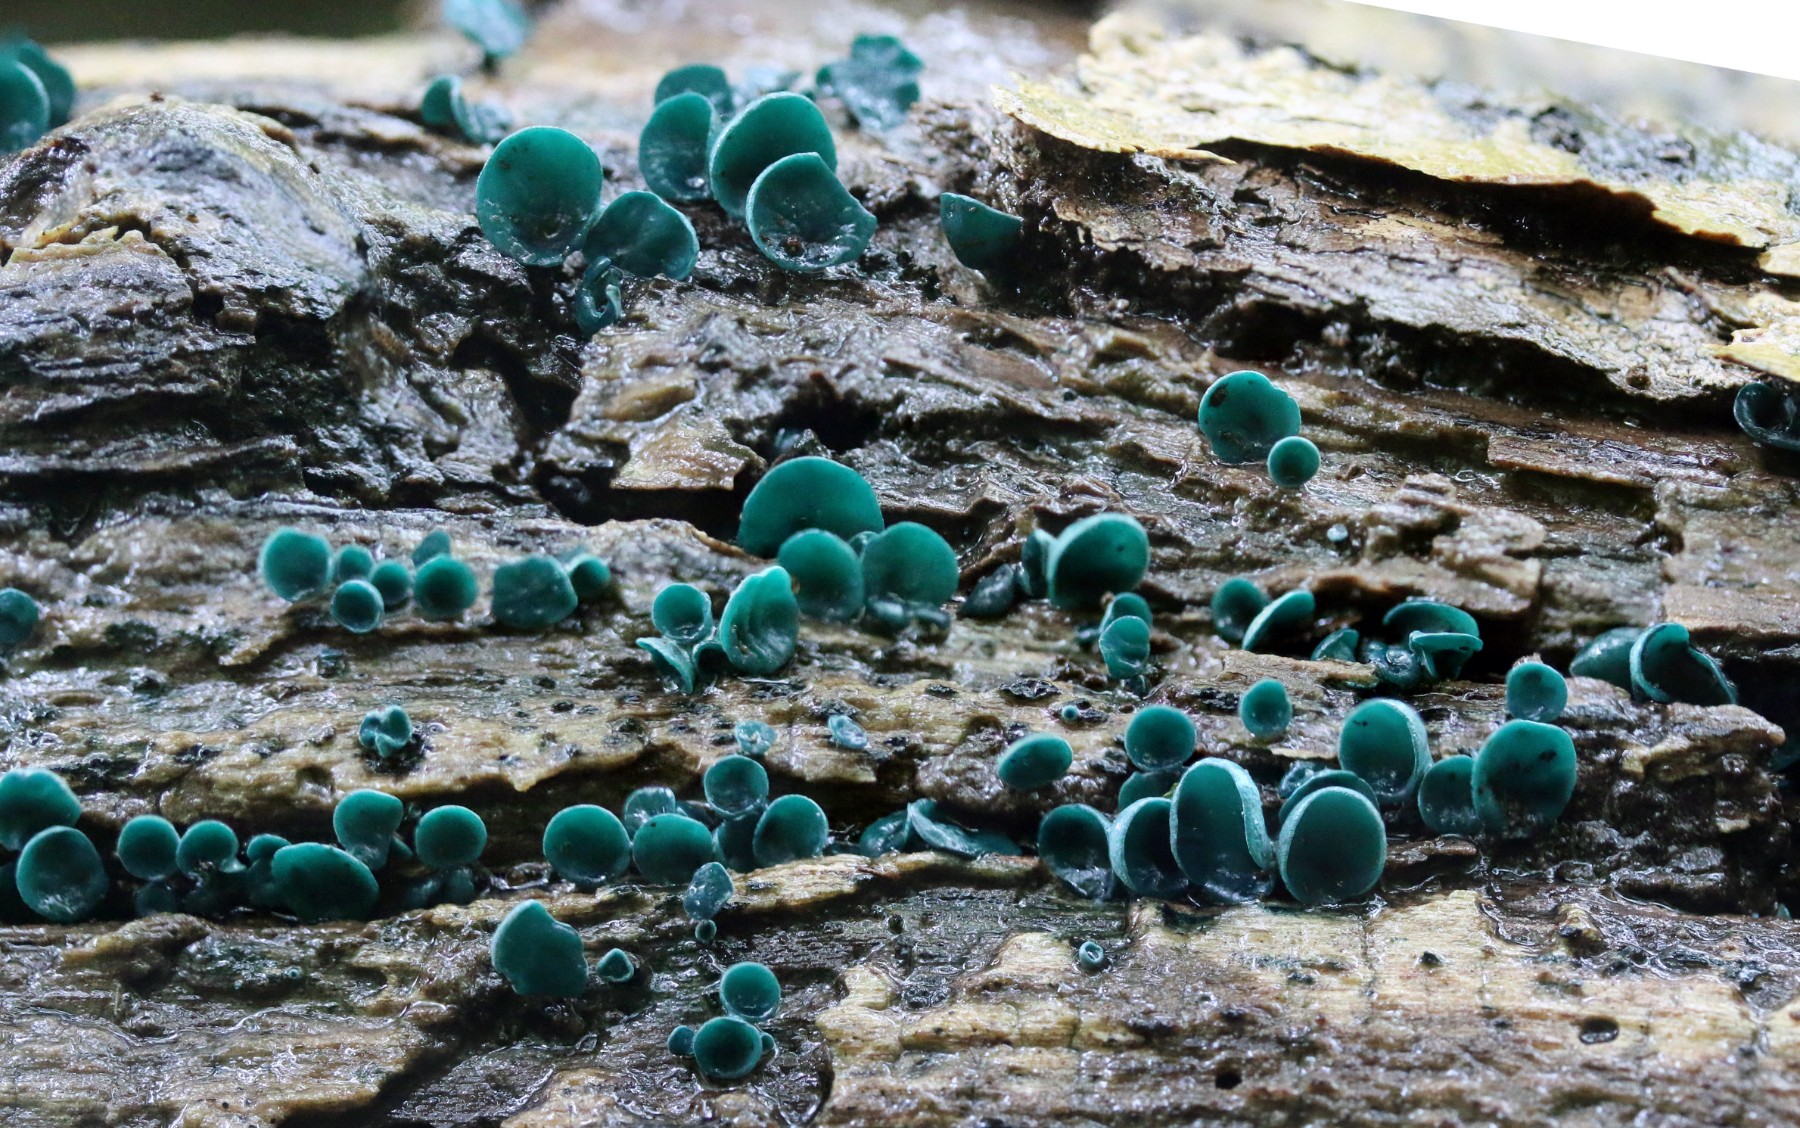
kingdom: Fungi
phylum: Ascomycota
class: Leotiomycetes
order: Helotiales
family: Chlorociboriaceae
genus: Chlorociboria
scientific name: Chlorociboria aeruginascens
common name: almindelig grønskive
